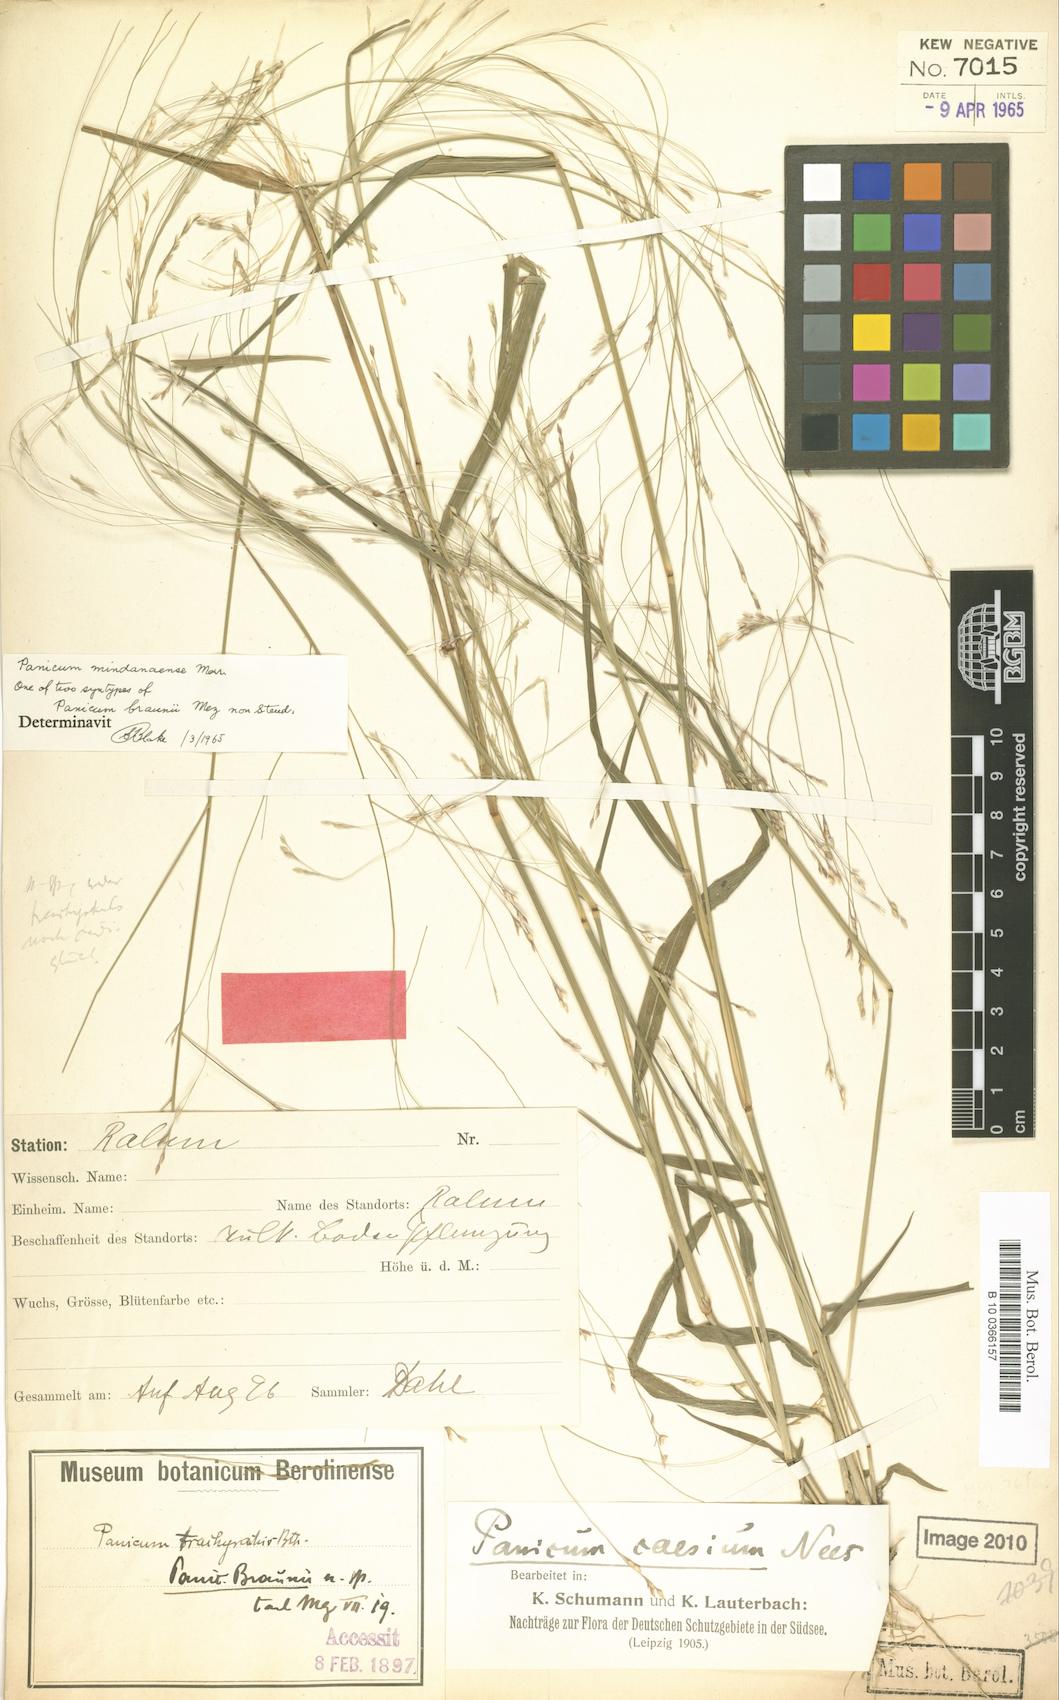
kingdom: Plantae
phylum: Tracheophyta
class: Liliopsida
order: Poales
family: Poaceae
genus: Panicum
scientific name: Panicum seminudum
